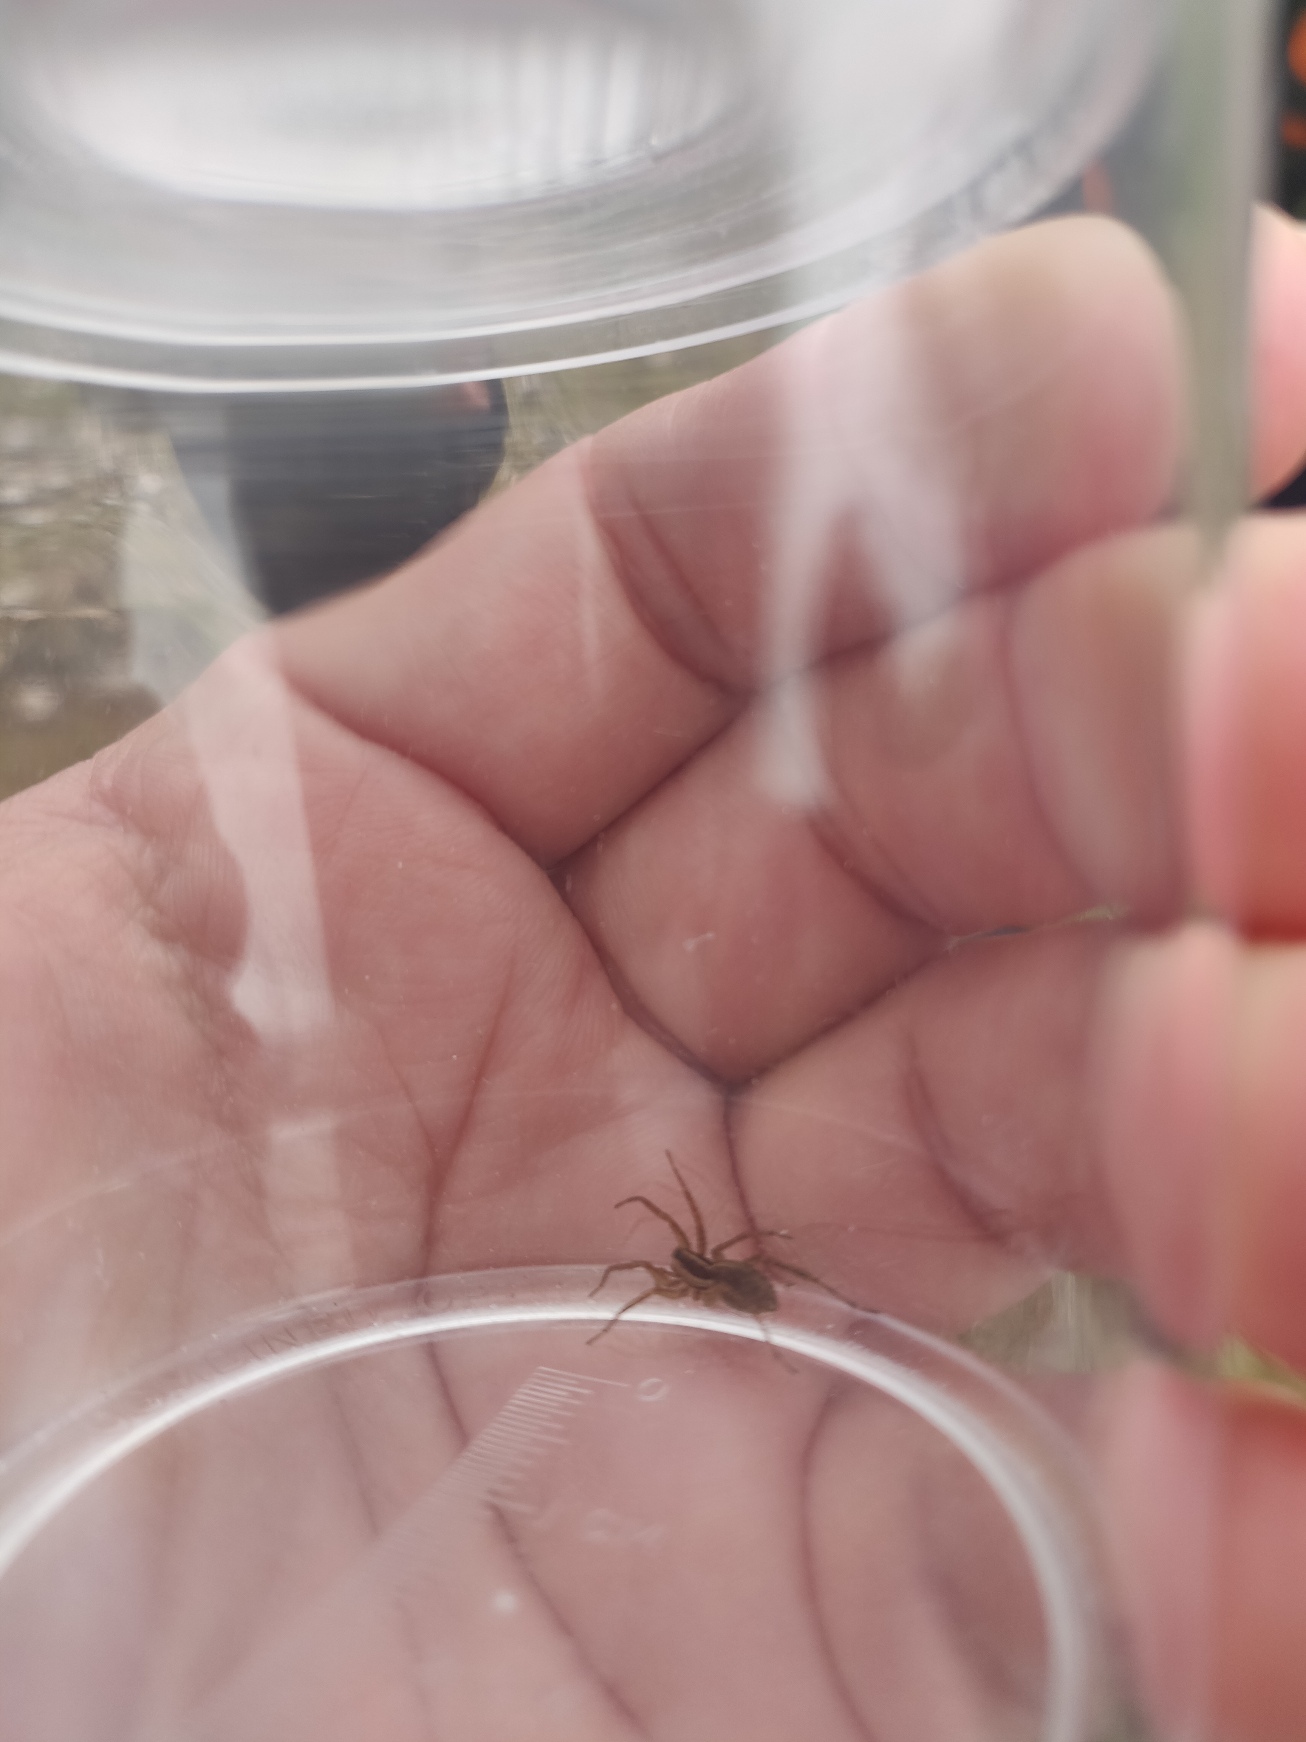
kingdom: Animalia
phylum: Arthropoda
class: Arachnida
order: Araneae
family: Lycosidae
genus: Pardosa
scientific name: Pardosa
